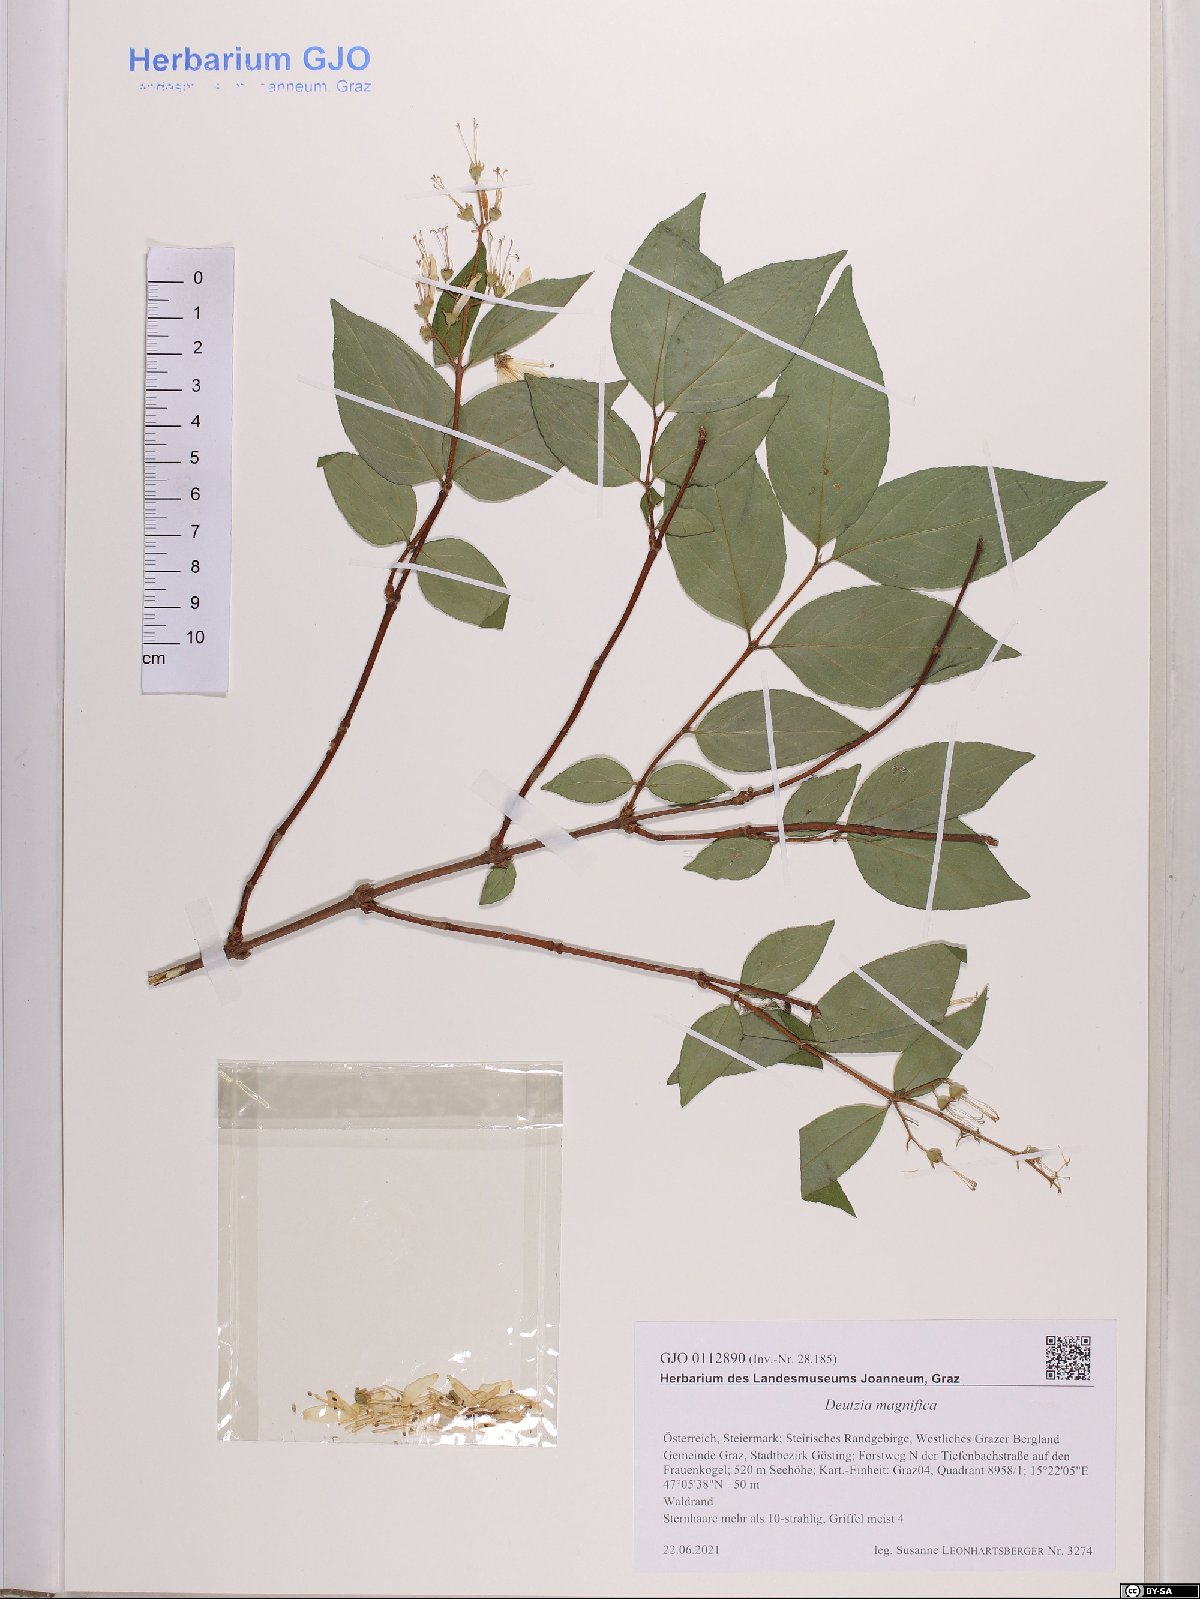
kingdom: Plantae
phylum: Tracheophyta
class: Magnoliopsida
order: Cornales
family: Hydrangeaceae
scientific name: Hydrangeaceae
